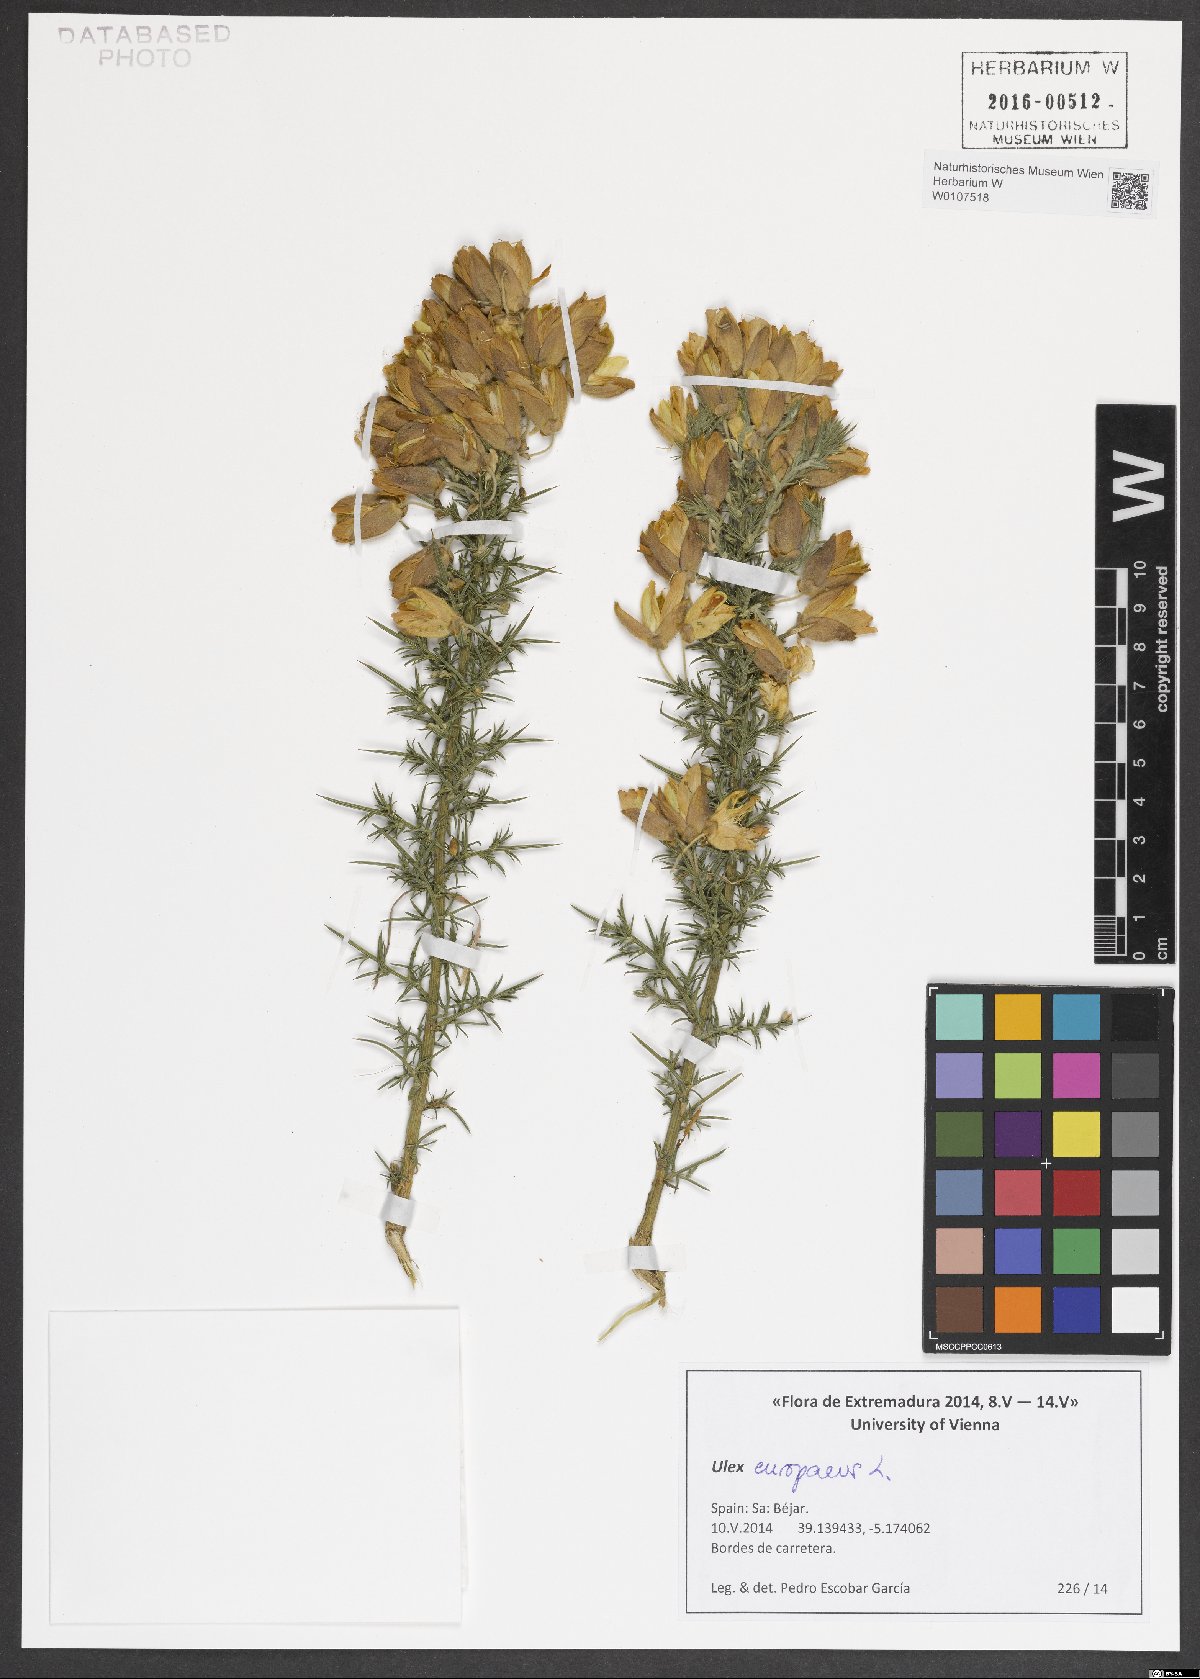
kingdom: Plantae
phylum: Tracheophyta
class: Magnoliopsida
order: Fabales
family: Fabaceae
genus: Ulex
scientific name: Ulex europaeus
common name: Common gorse
